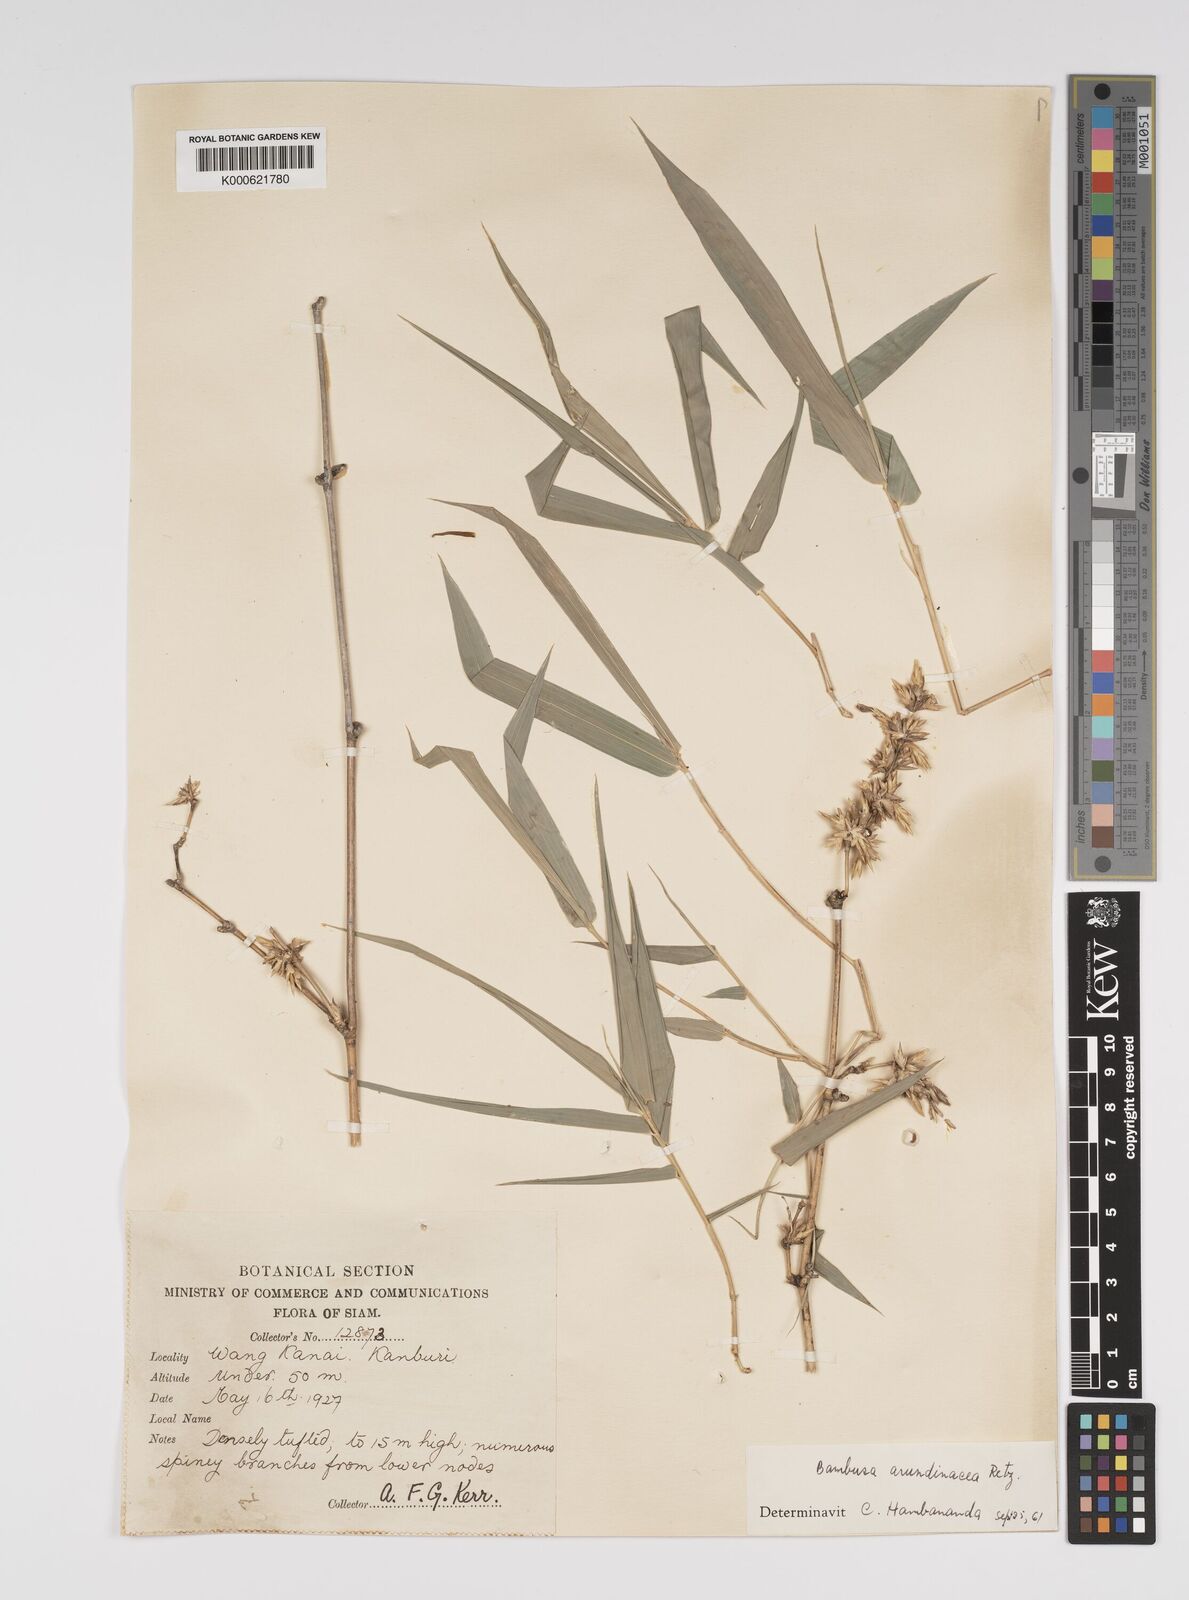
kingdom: Plantae
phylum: Tracheophyta
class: Liliopsida
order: Poales
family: Poaceae
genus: Bambusa
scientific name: Bambusa bambos
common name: Indian thorny bamboo
